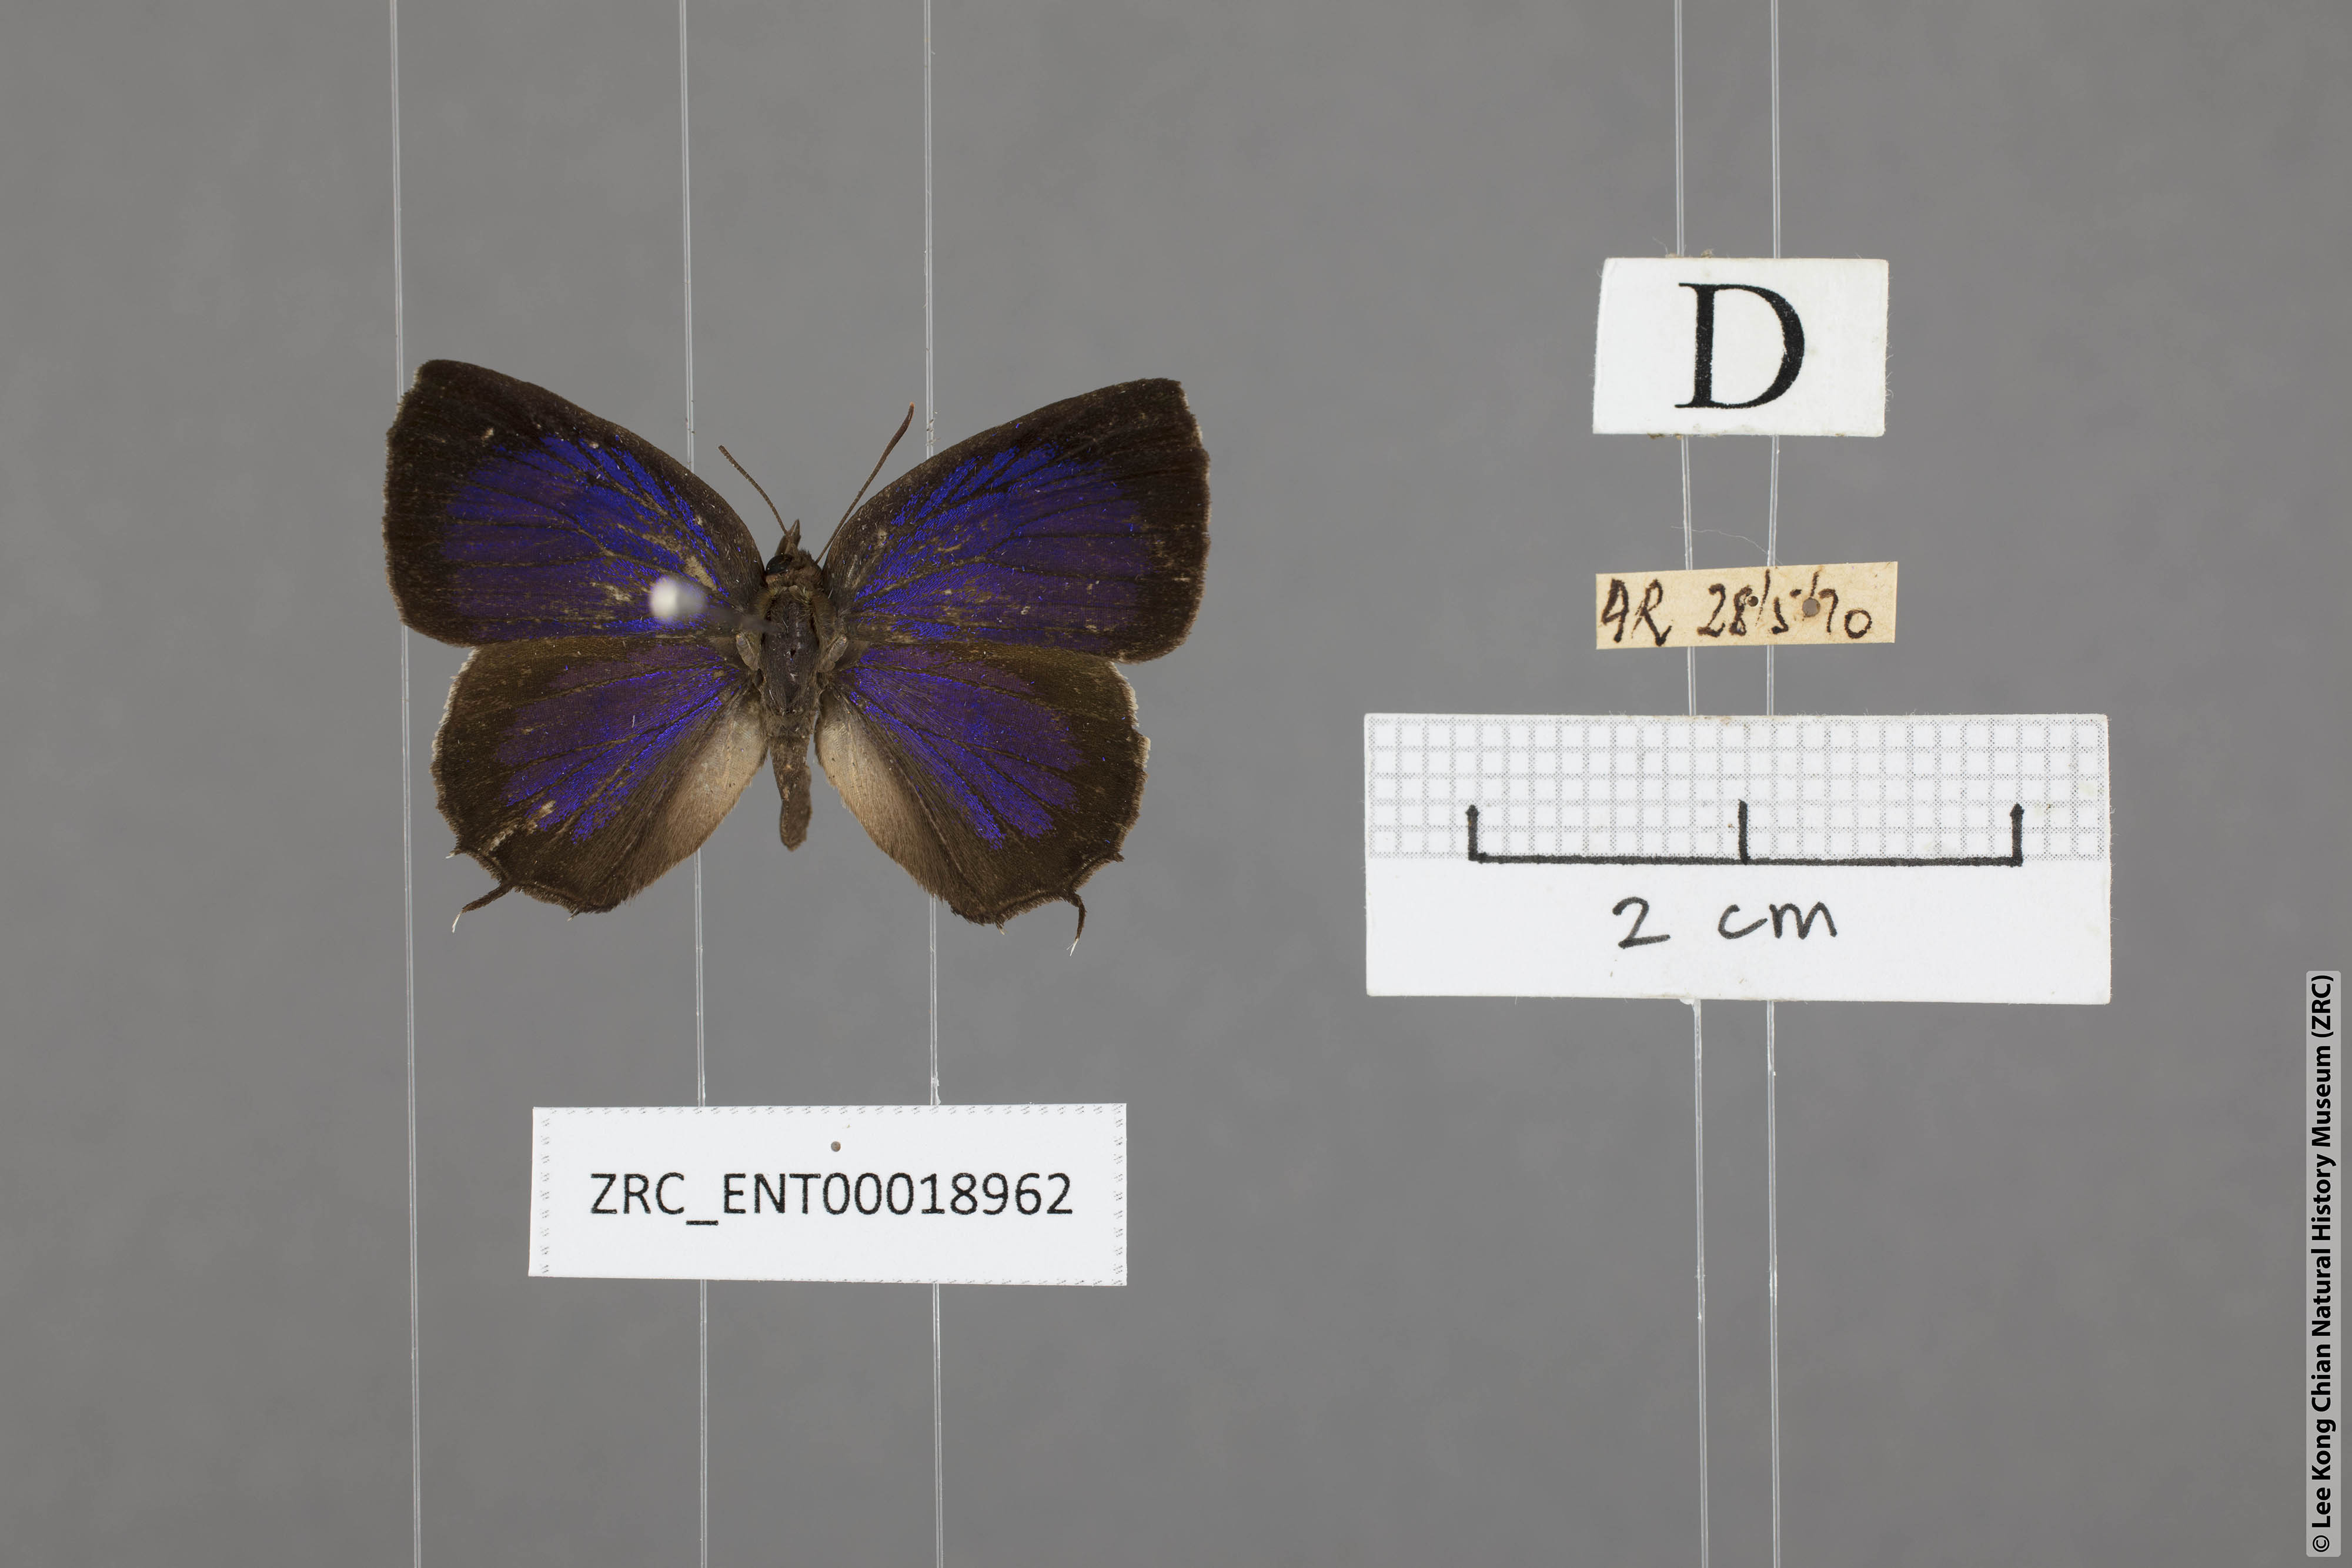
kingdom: Animalia
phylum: Arthropoda
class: Insecta
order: Lepidoptera
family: Lycaenidae
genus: Arhopala
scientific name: Arhopala abseus
